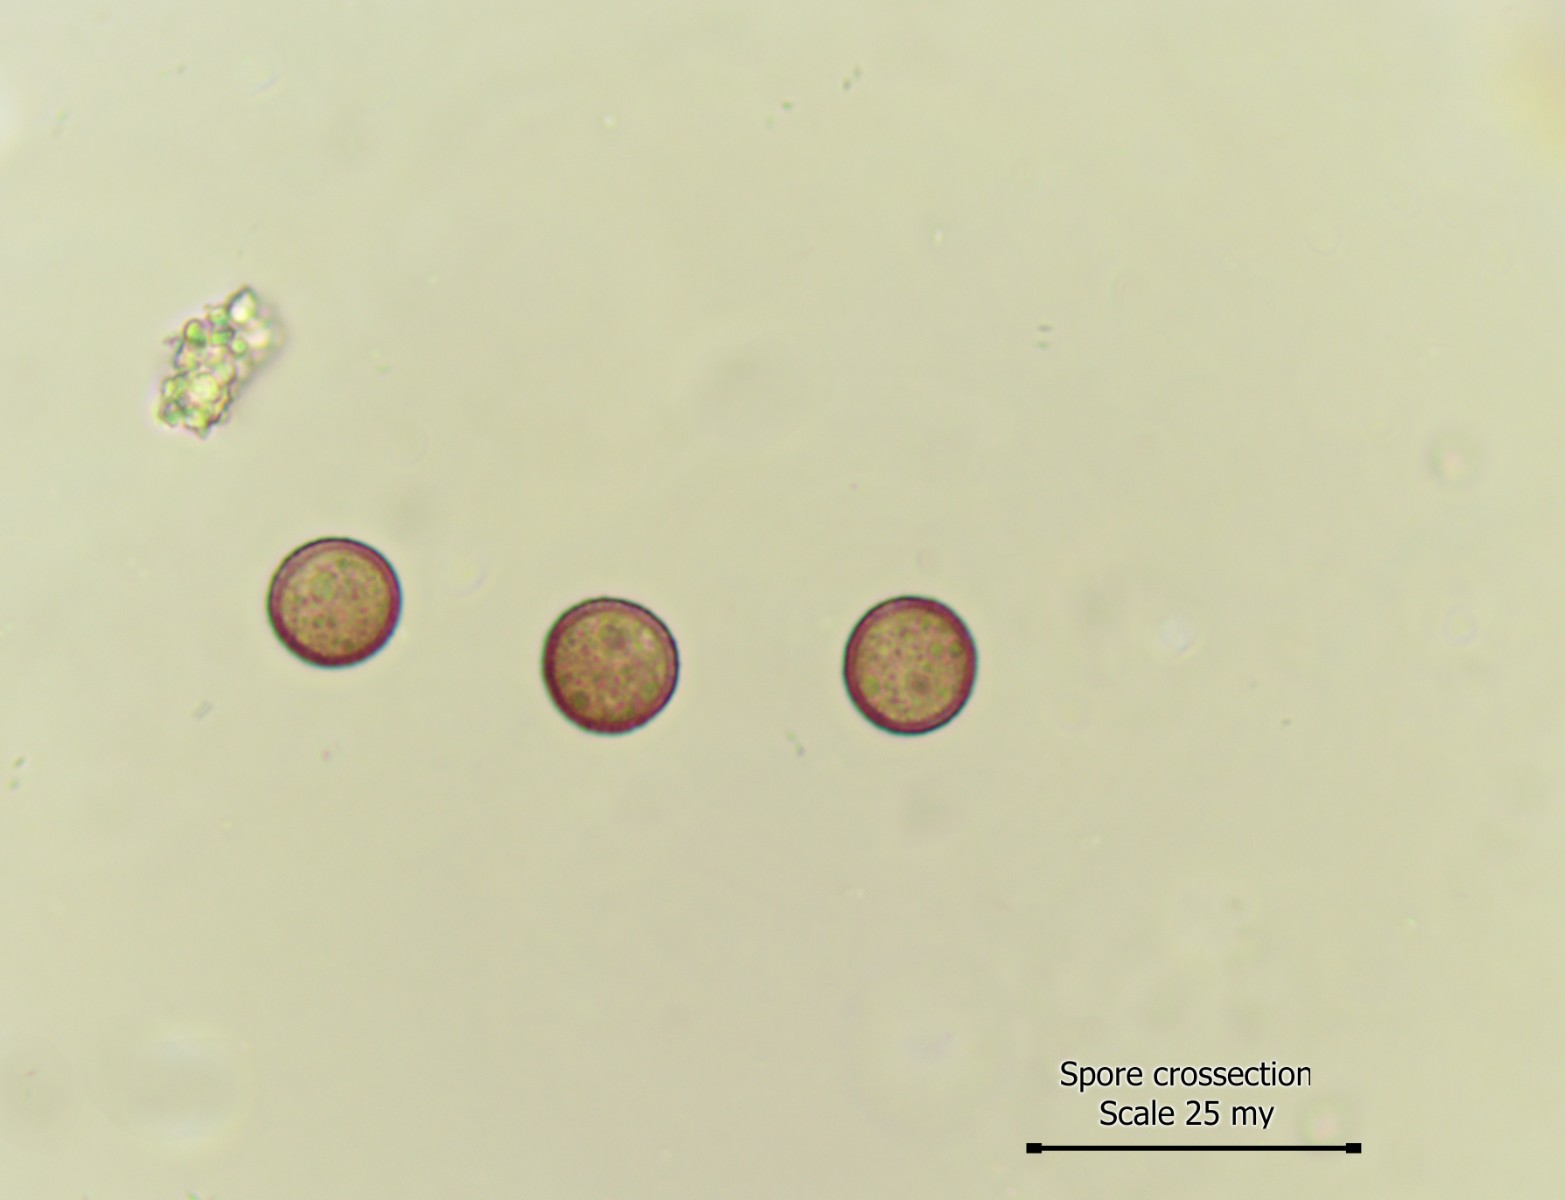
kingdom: Protozoa
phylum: Mycetozoa
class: Myxomycetes
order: Physarales
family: Physaraceae
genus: Physarum
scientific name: Physarum contextum
